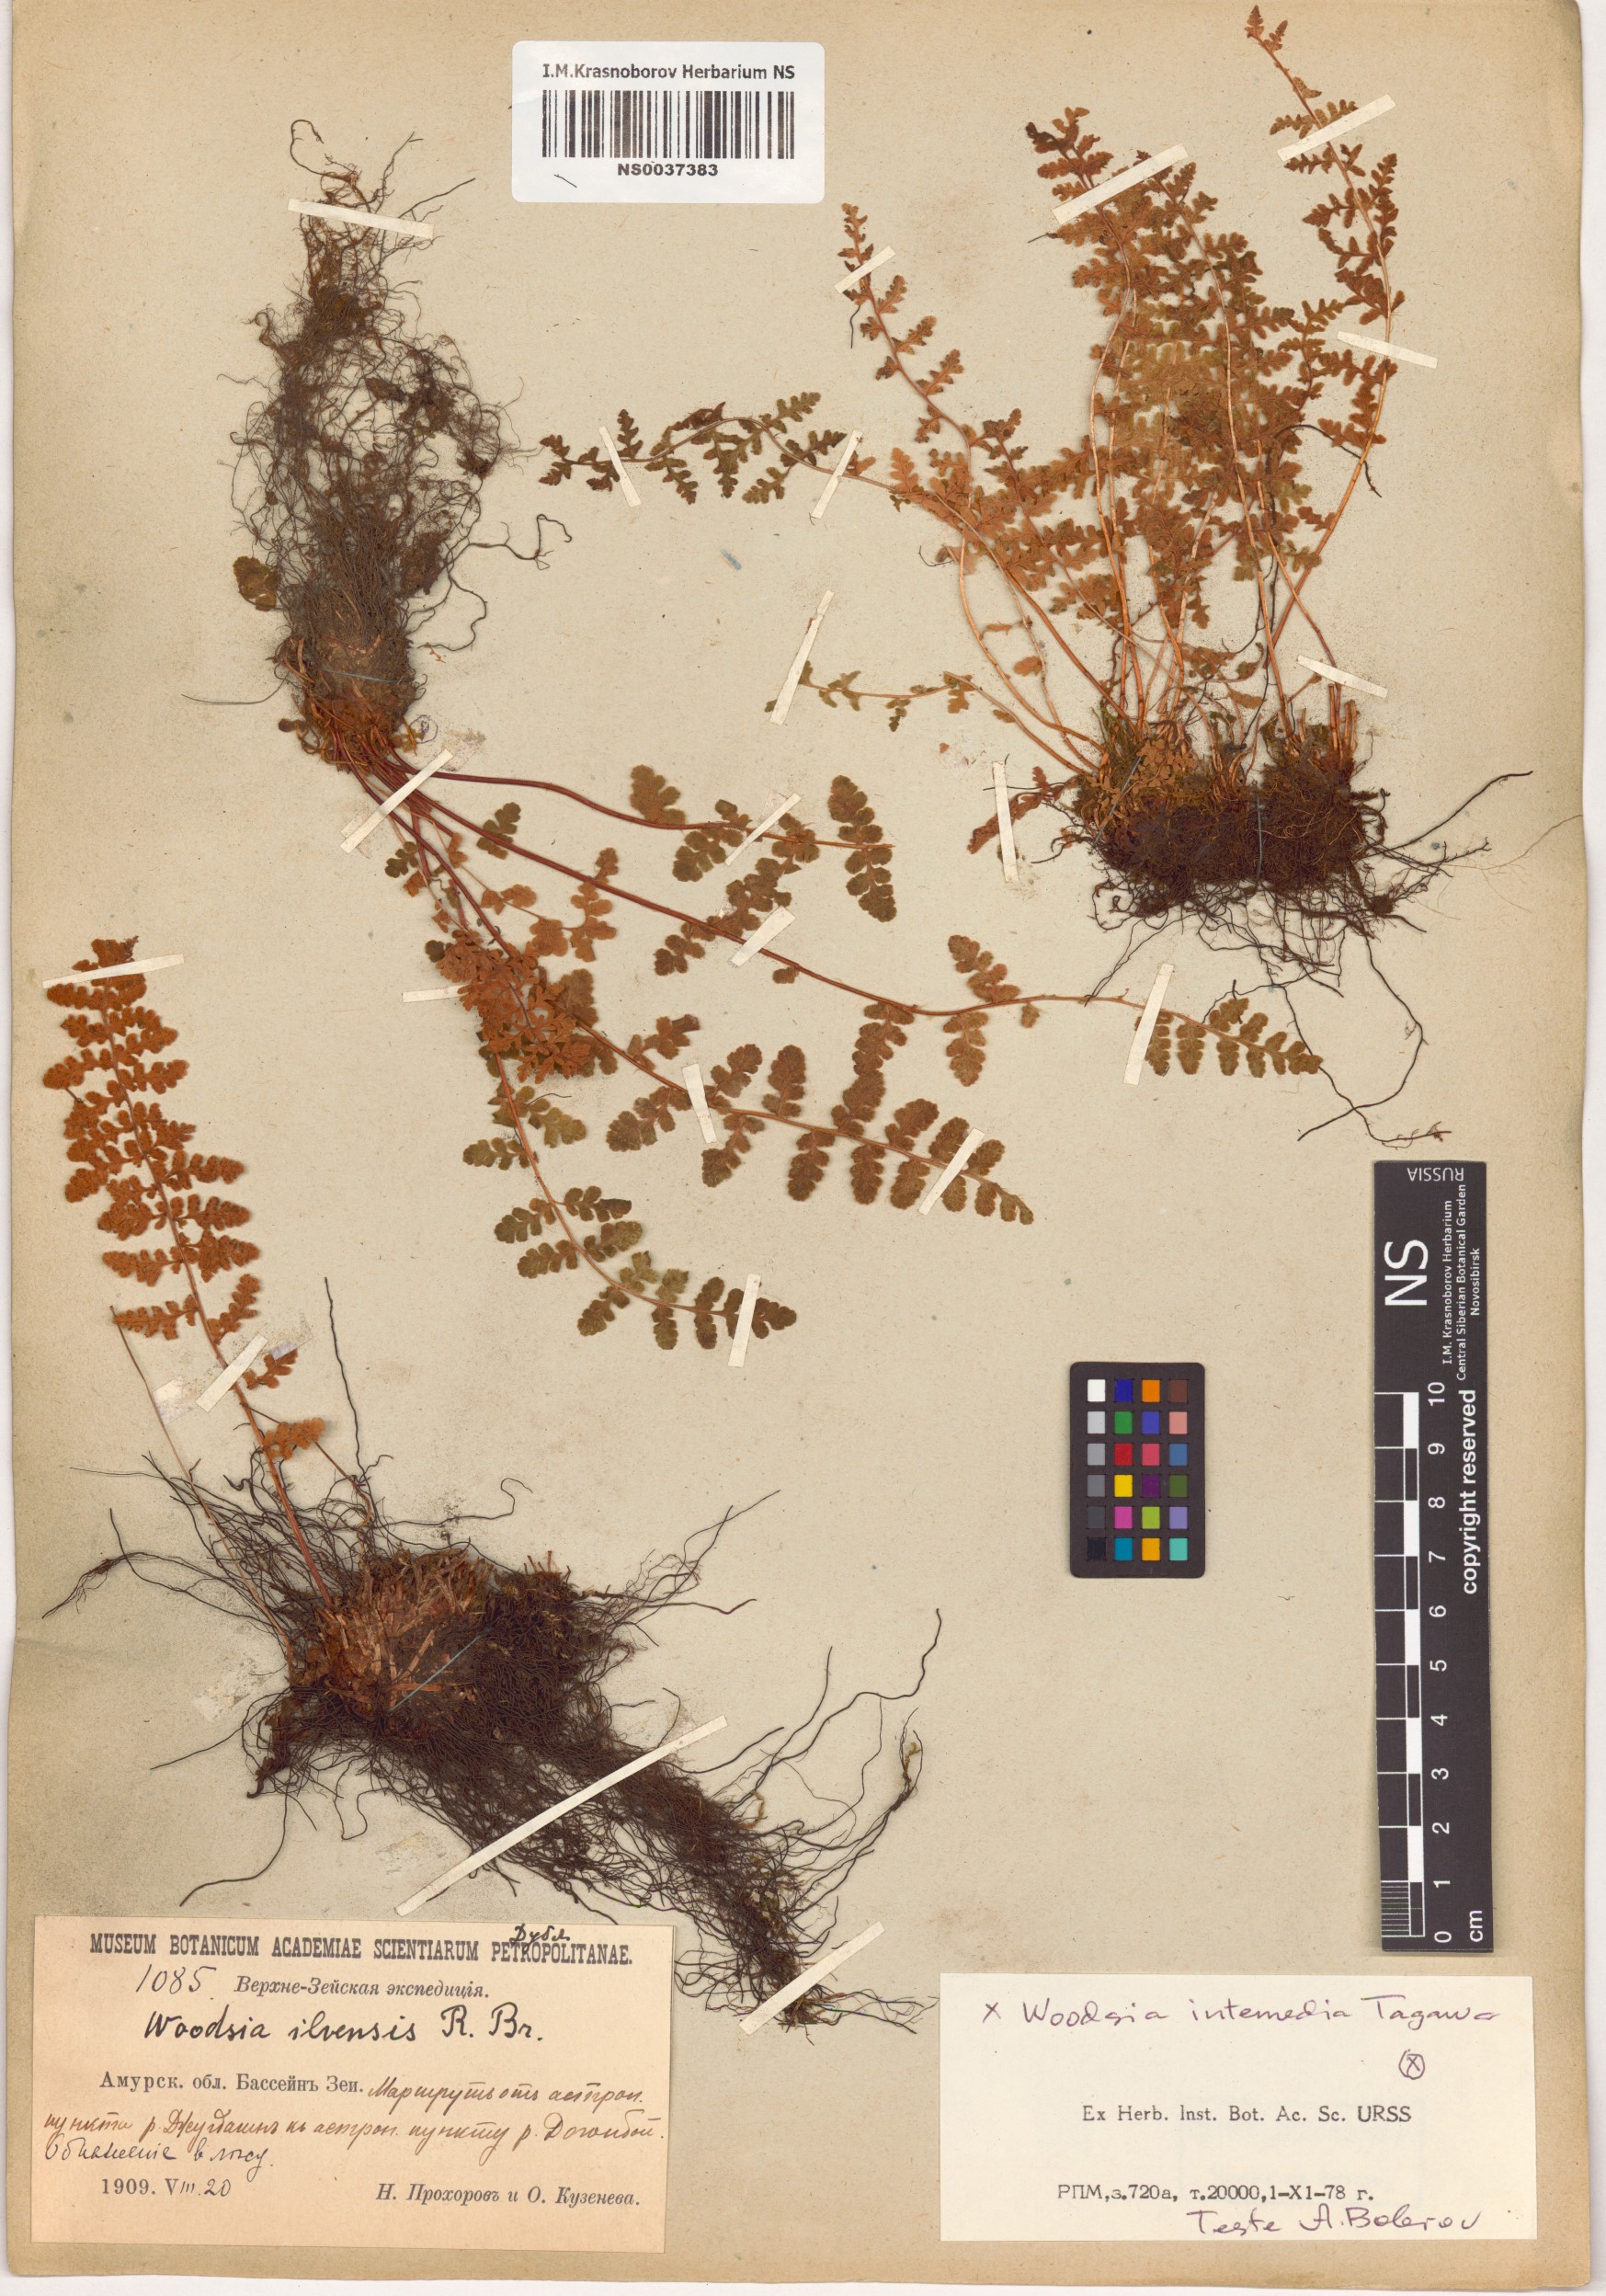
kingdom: Plantae
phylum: Tracheophyta
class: Polypodiopsida
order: Polypodiales
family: Woodsiaceae
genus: Woodsia
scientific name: Woodsia taishanensis
